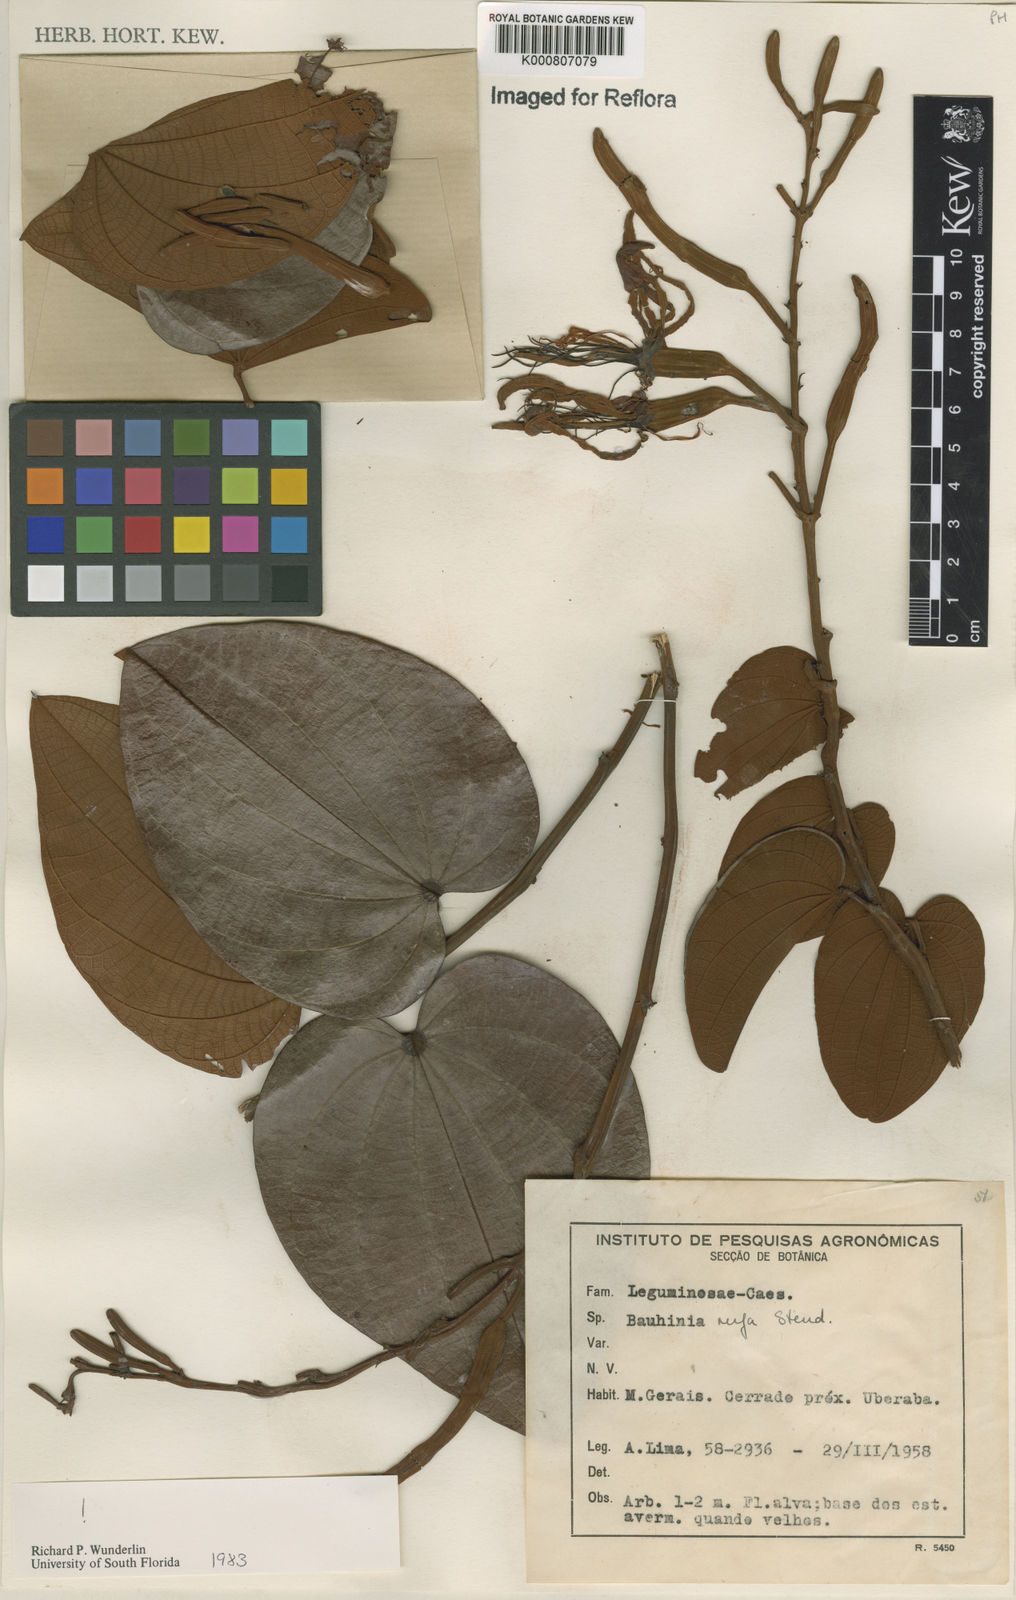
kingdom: Plantae
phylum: Tracheophyta
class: Magnoliopsida
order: Fabales
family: Fabaceae
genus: Bauhinia
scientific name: Bauhinia rufa
